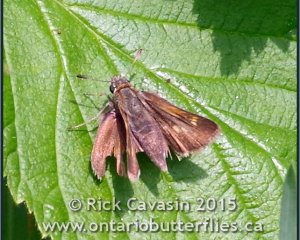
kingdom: Animalia
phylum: Arthropoda
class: Insecta
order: Lepidoptera
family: Hesperiidae
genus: Polites
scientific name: Polites themistocles
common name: Tawny-edged Skipper
